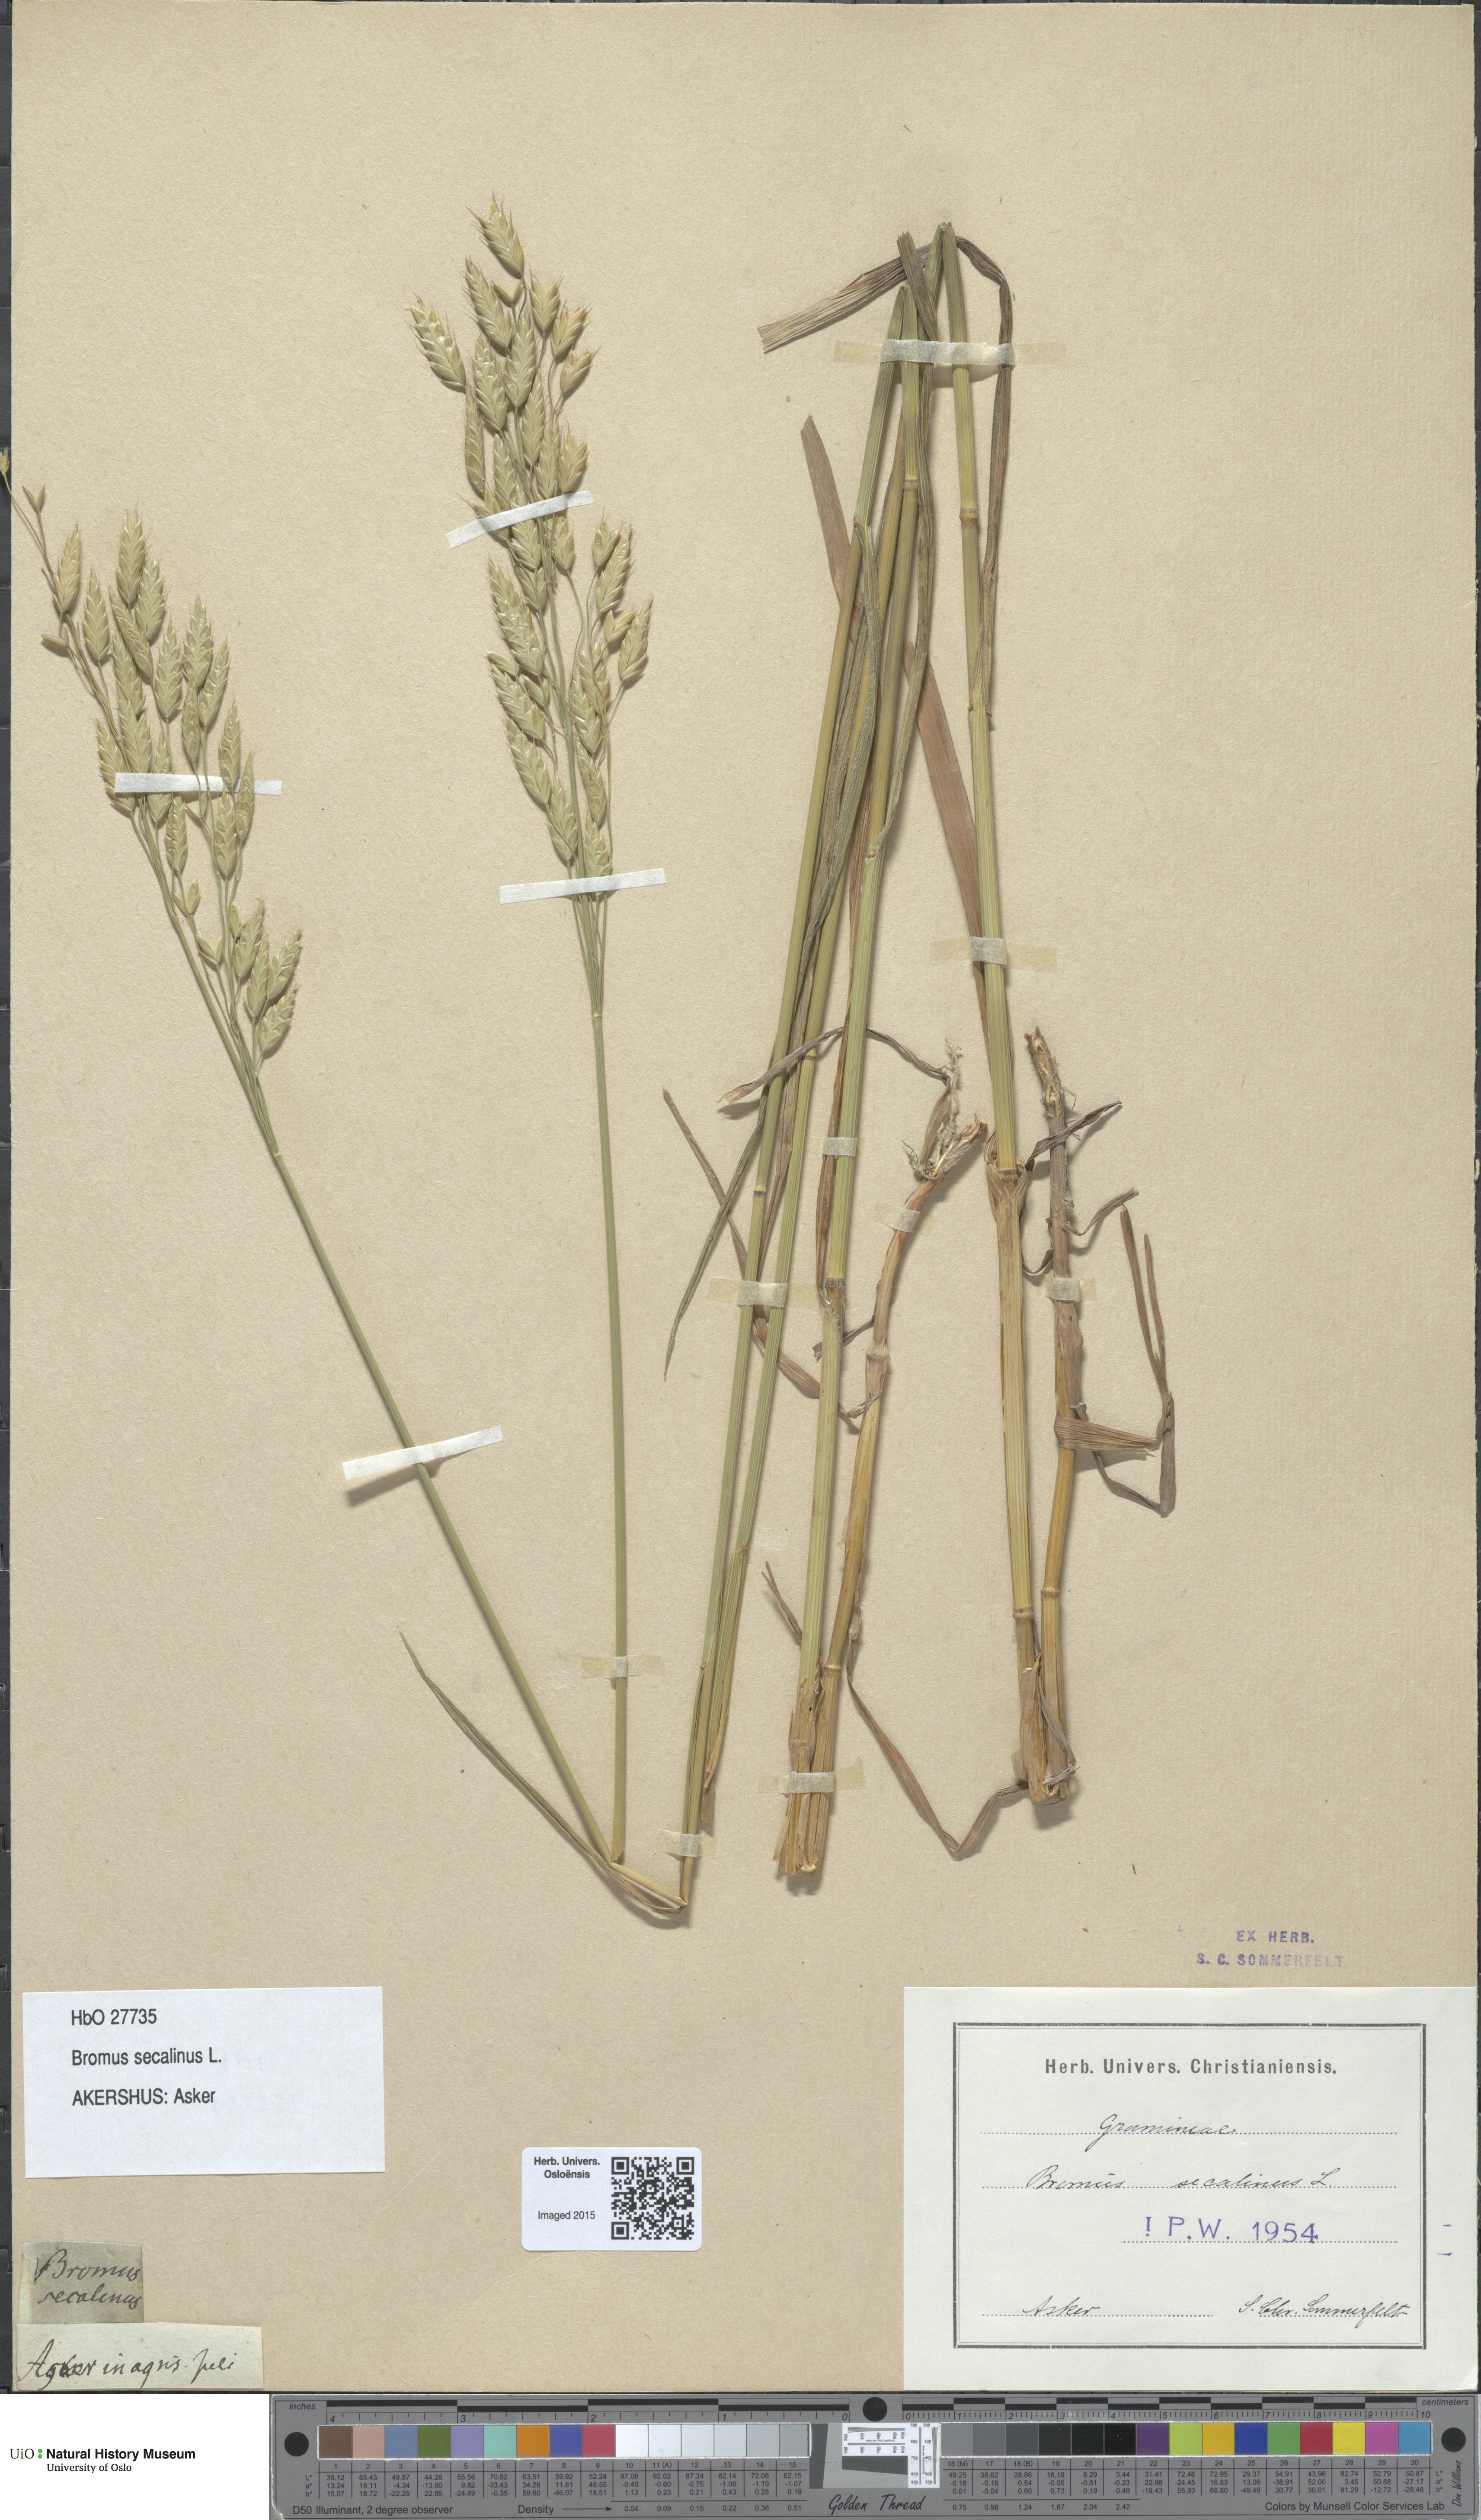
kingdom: Plantae
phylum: Tracheophyta
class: Liliopsida
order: Poales
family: Poaceae
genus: Bromus
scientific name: Bromus secalinus
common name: Rye brome
